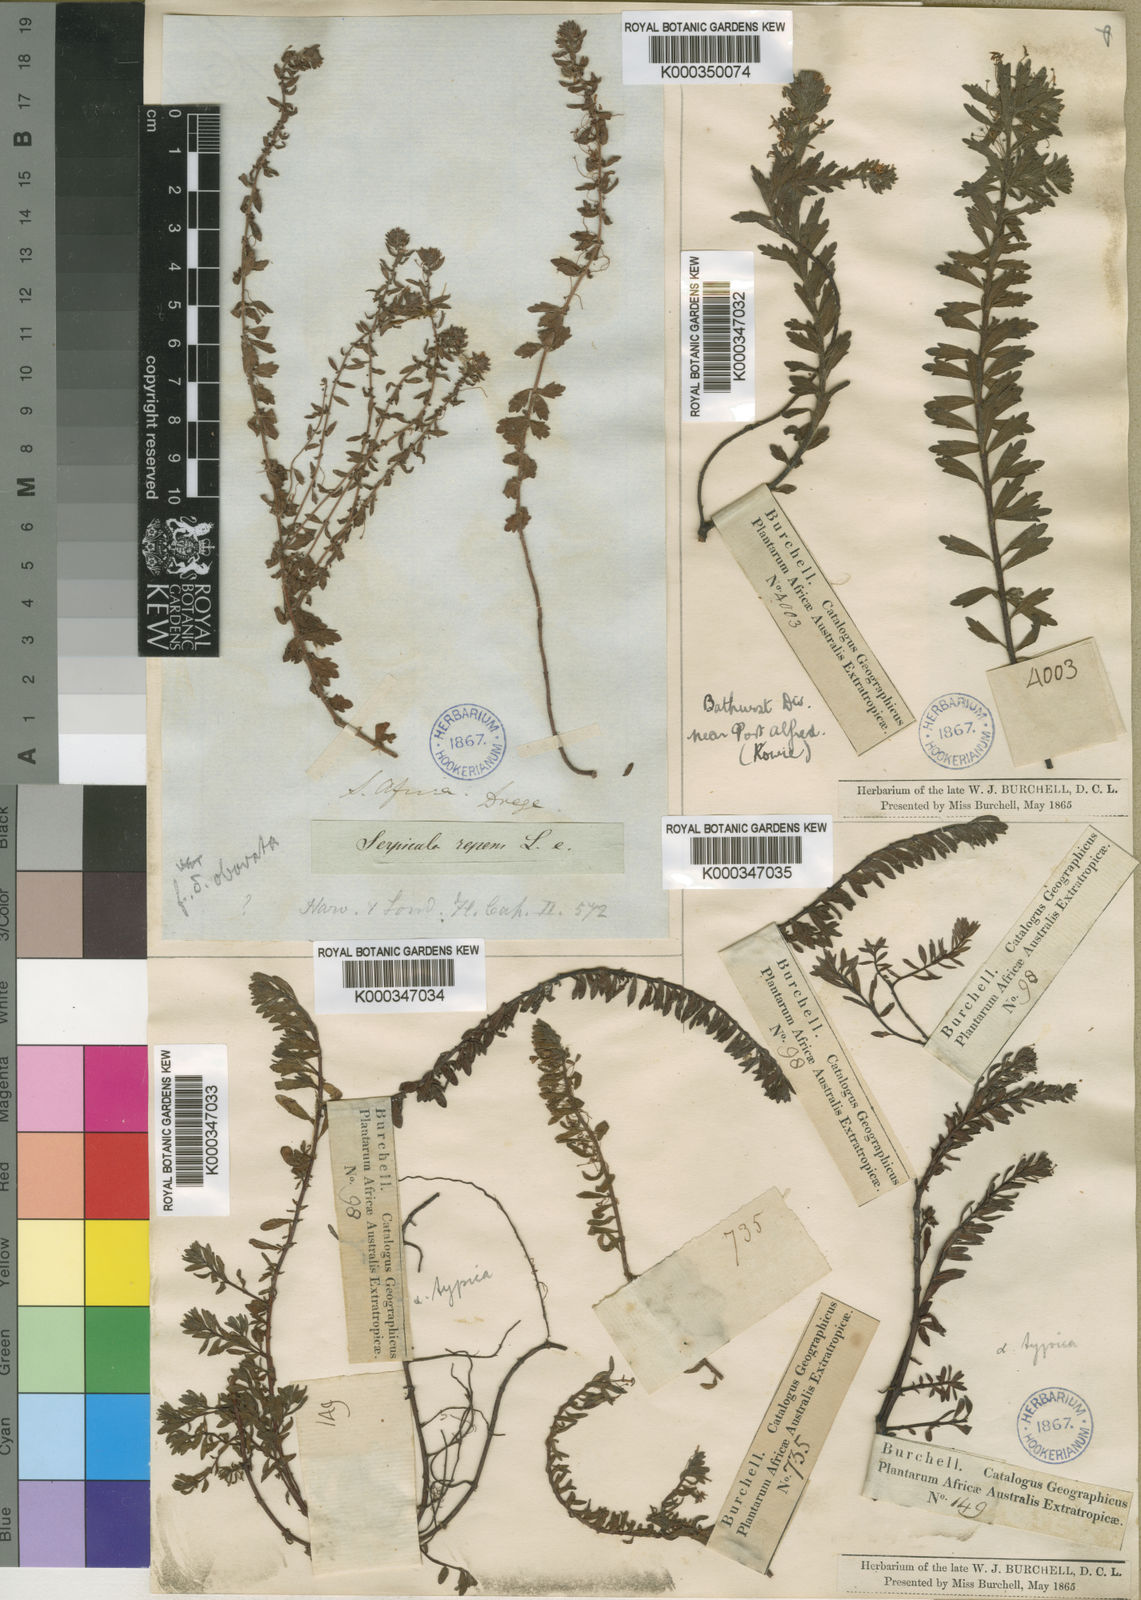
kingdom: Plantae
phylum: Tracheophyta
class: Magnoliopsida
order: Saxifragales
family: Haloragaceae
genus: Laurembergia
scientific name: Laurembergia repens
